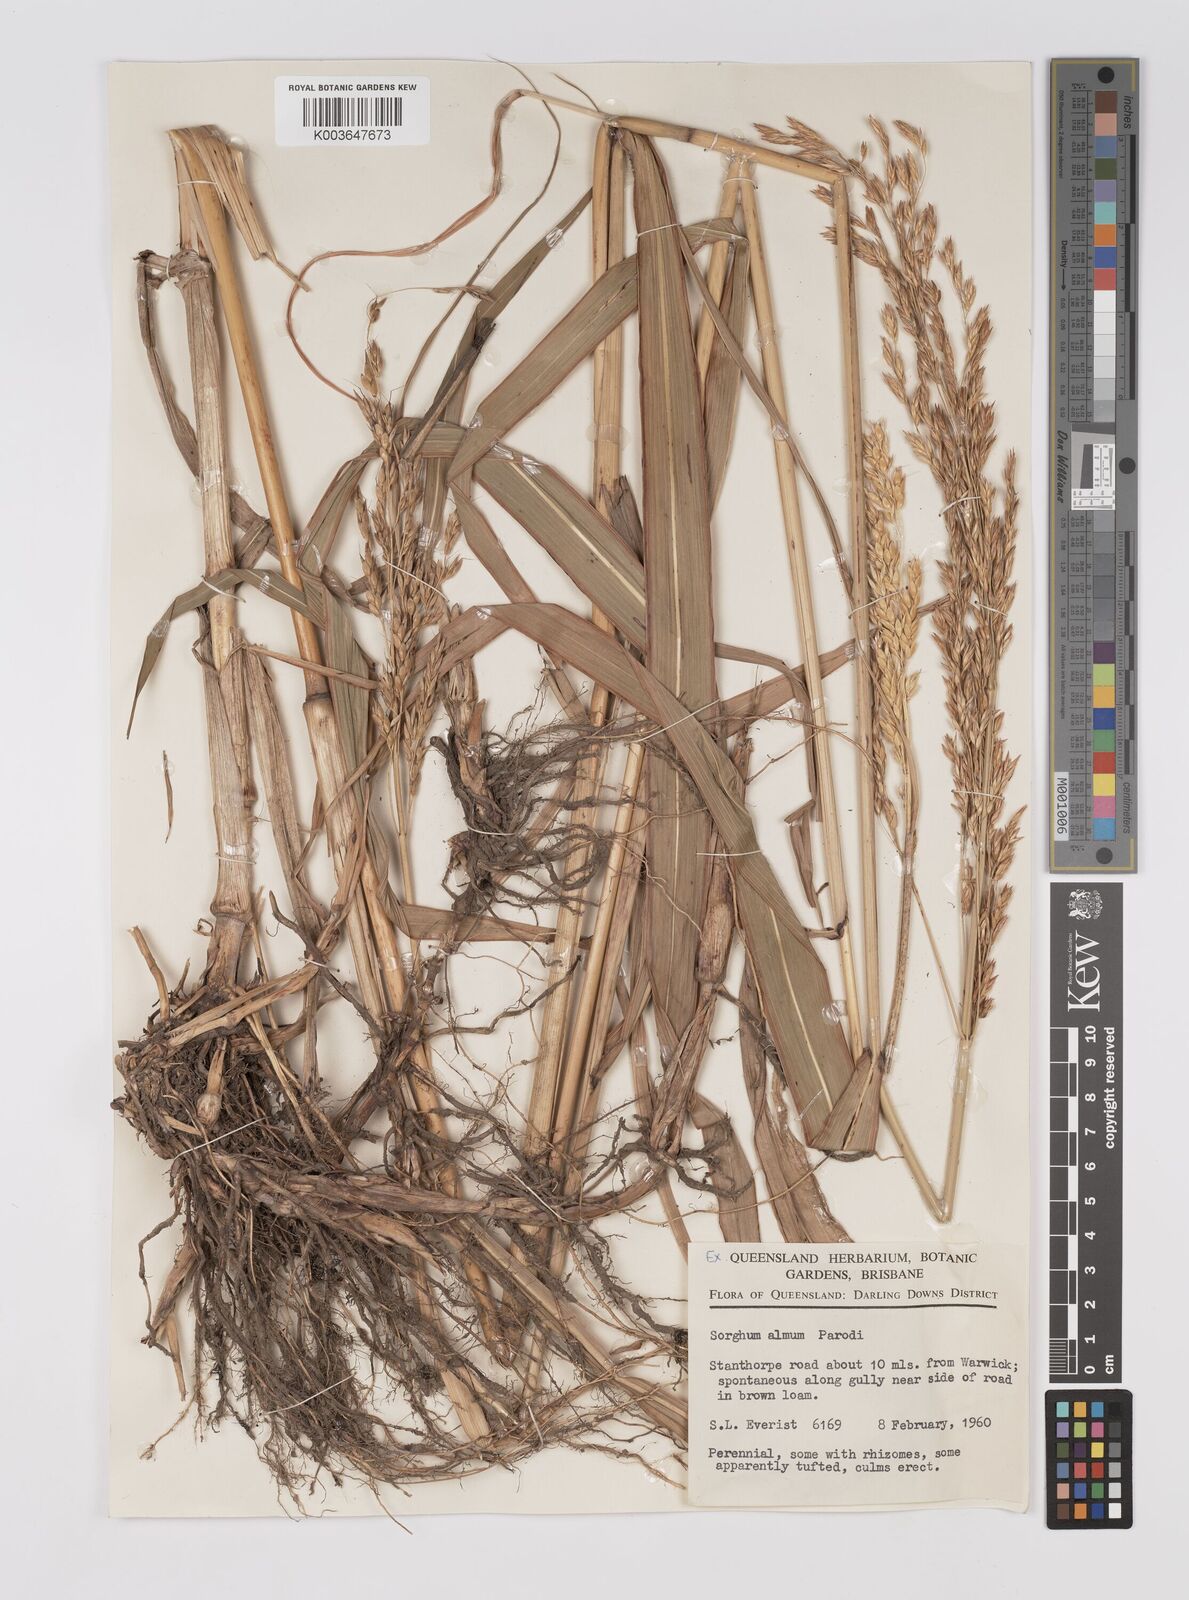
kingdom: Plantae
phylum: Tracheophyta
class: Liliopsida
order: Poales
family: Poaceae
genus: Sorghum
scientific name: Sorghum almum
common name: Columbus grass
